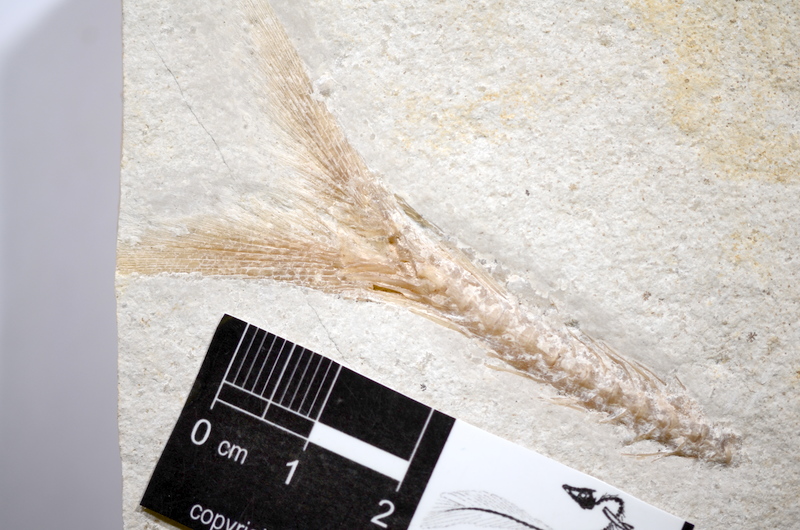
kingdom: Animalia
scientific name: Animalia
